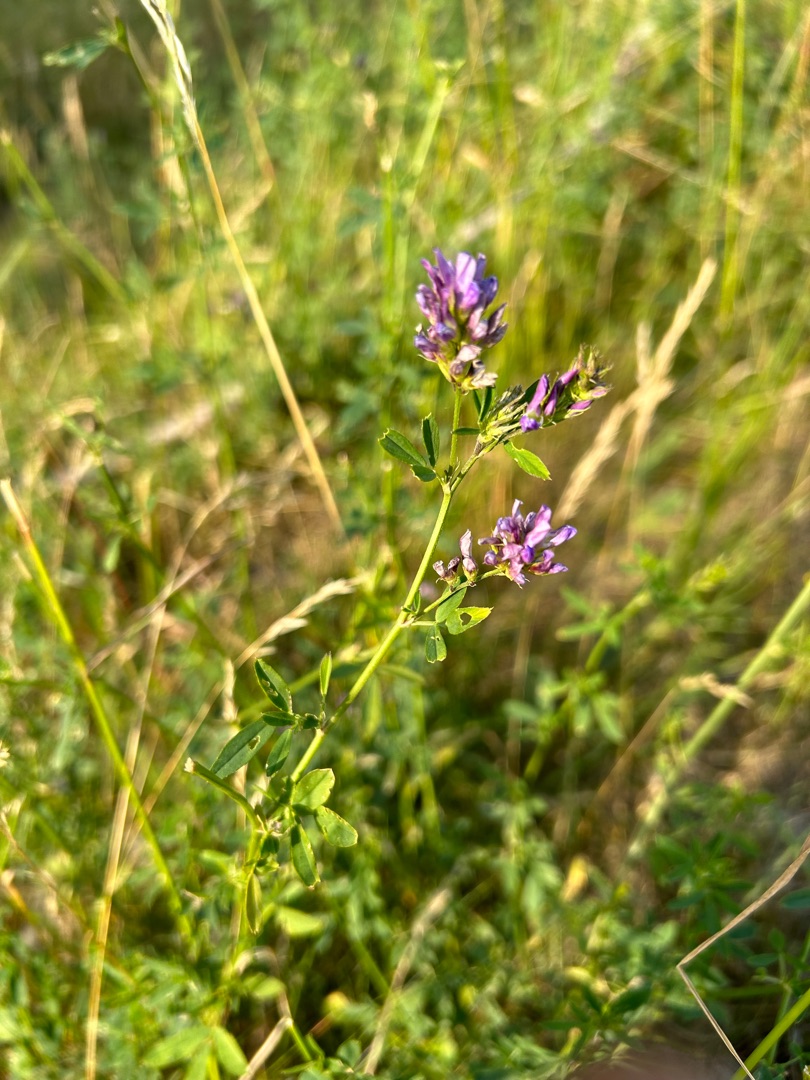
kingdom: Plantae
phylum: Tracheophyta
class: Magnoliopsida
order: Fabales
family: Fabaceae
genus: Medicago
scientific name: Medicago sativa
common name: Lucerne
